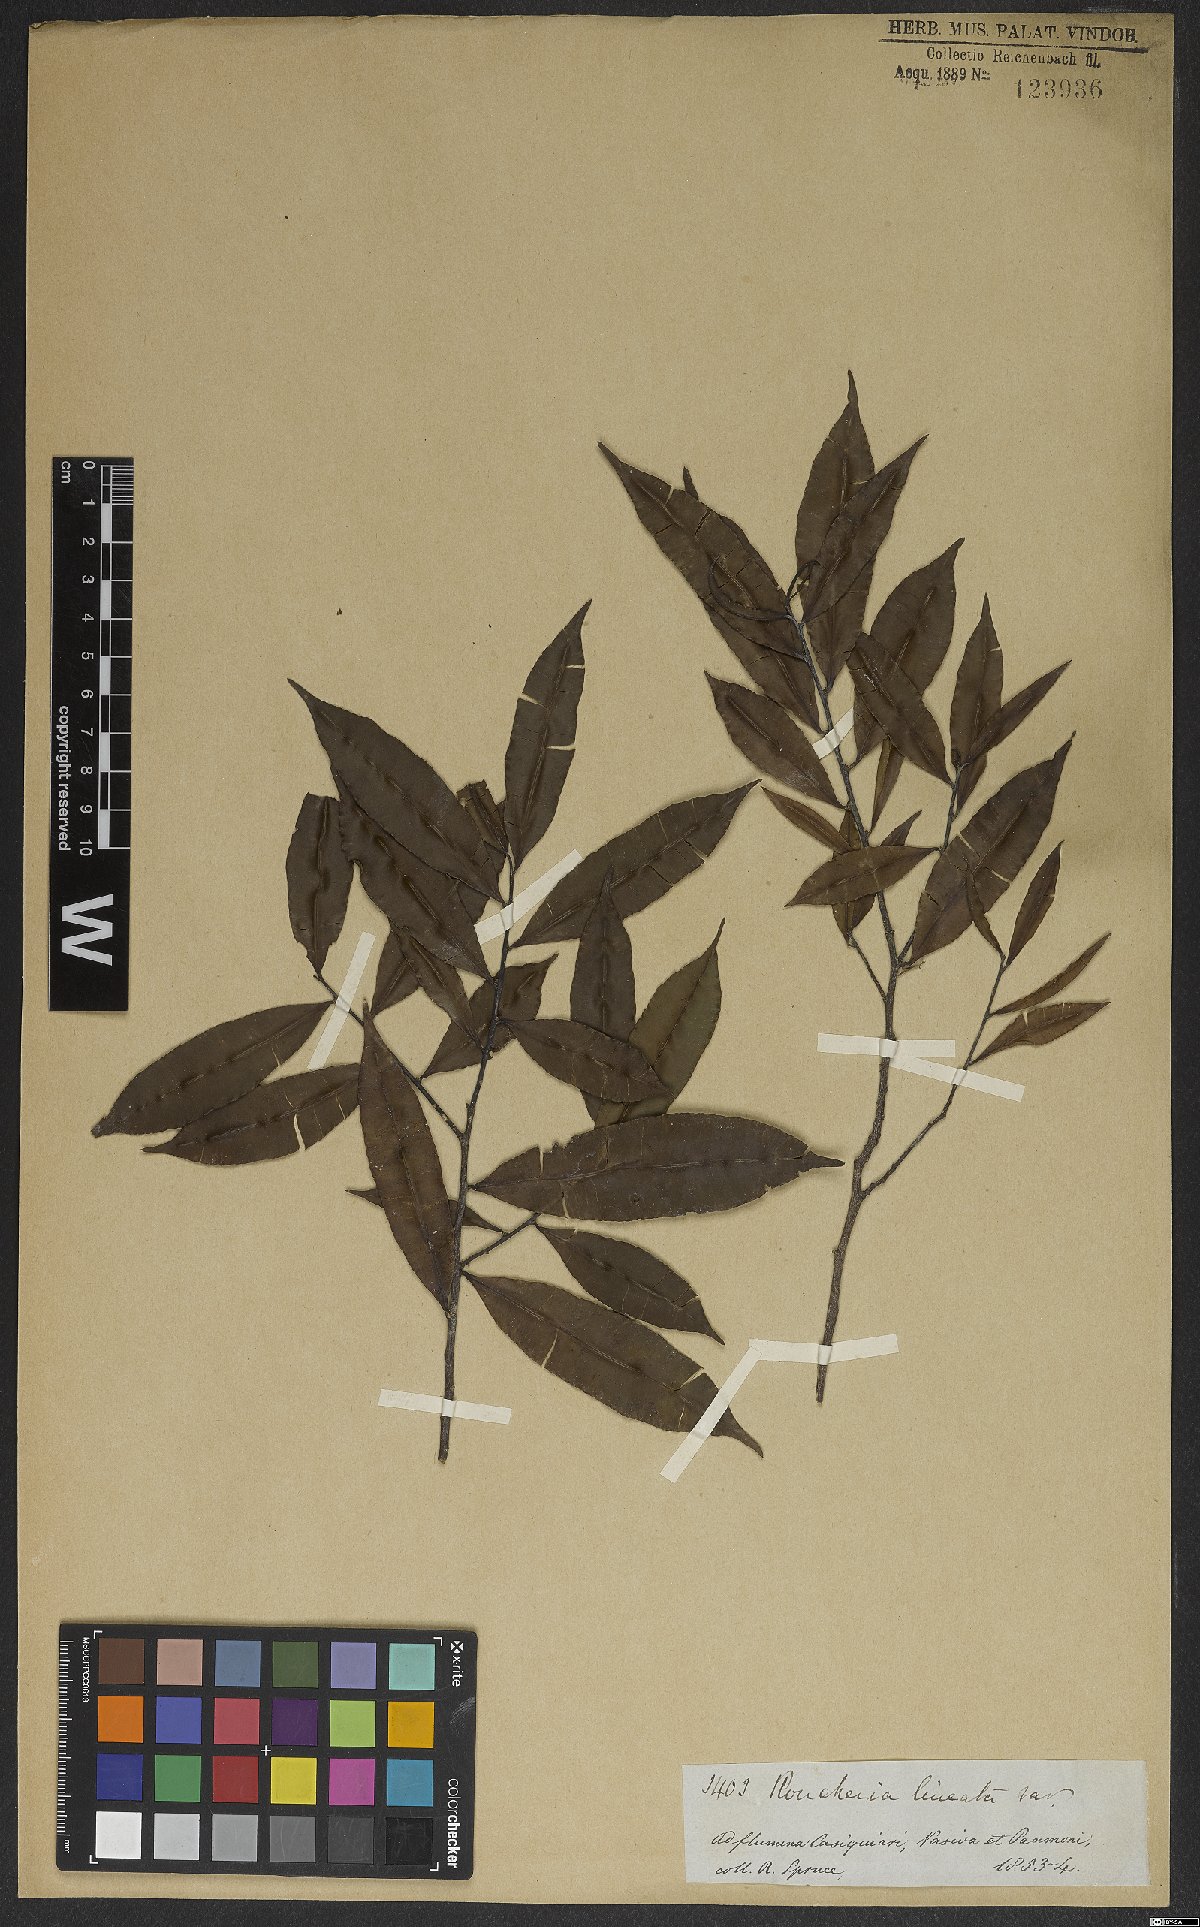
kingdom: Plantae
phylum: Tracheophyta
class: Magnoliopsida
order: Malpighiales
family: Linaceae
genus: Roucheria
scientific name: Roucheria
